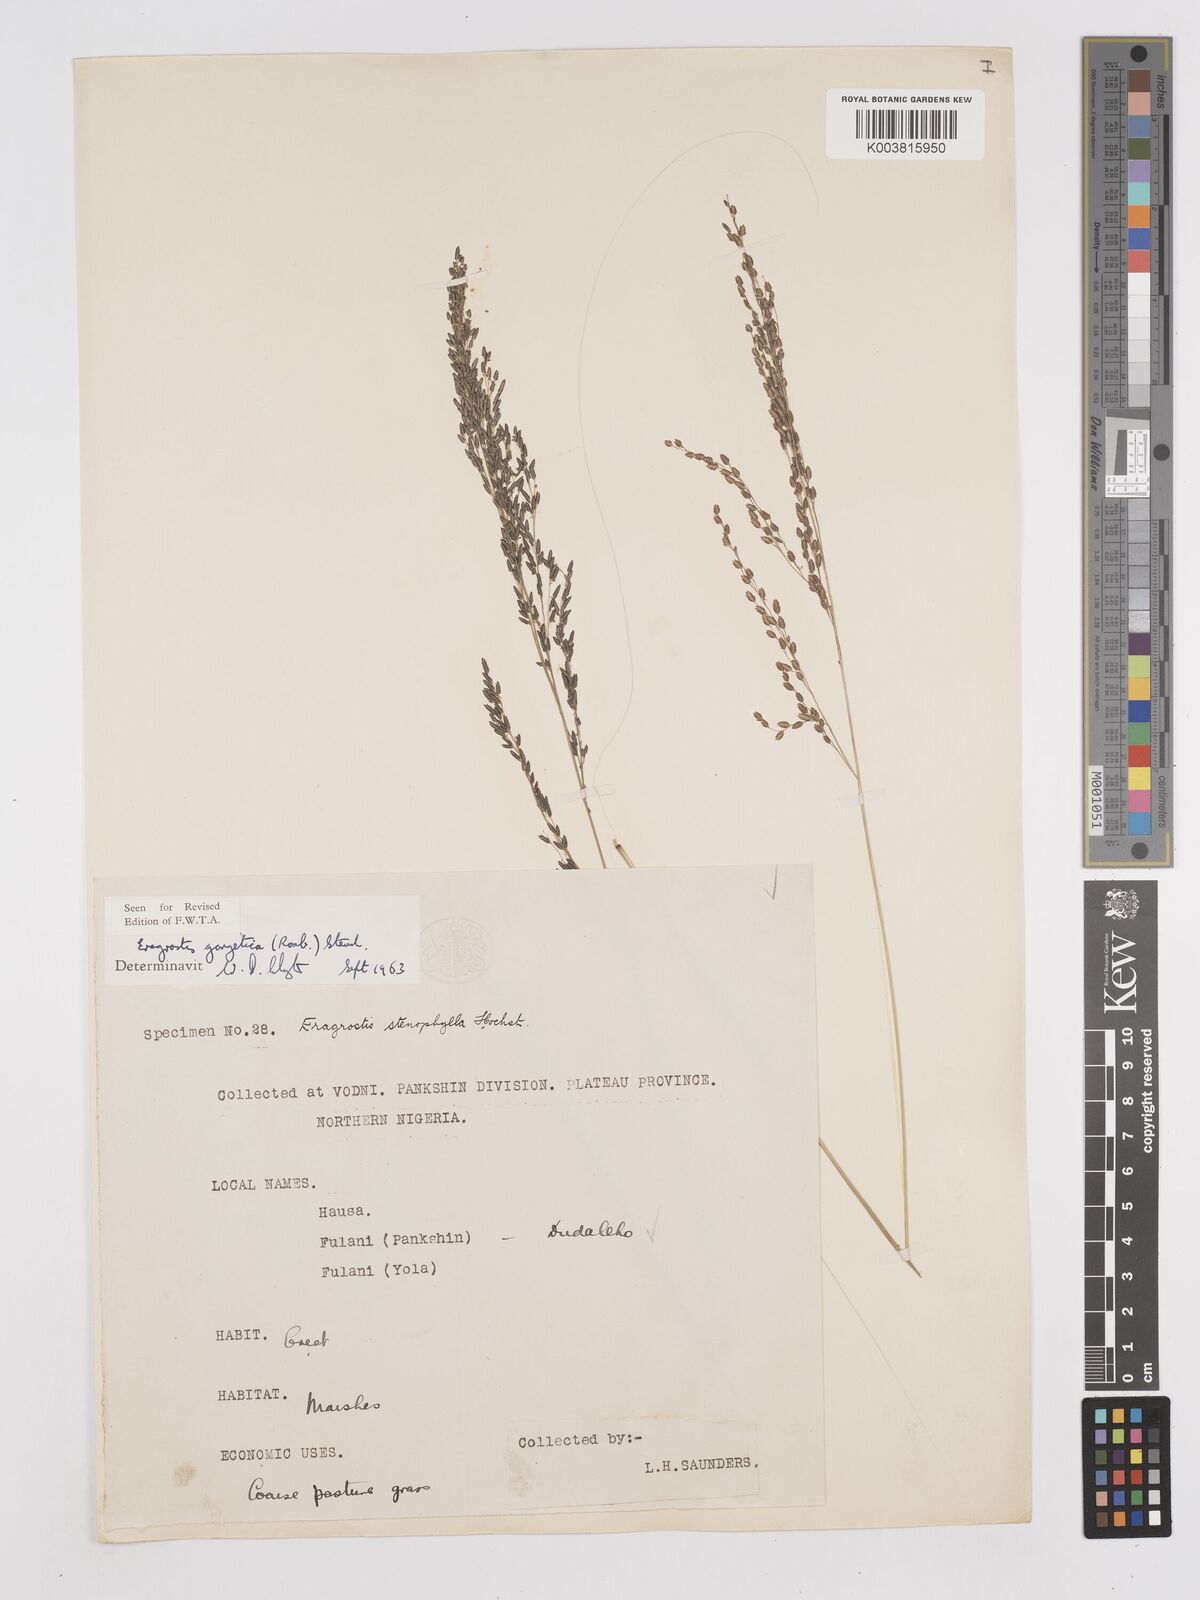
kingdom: Plantae
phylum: Tracheophyta
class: Liliopsida
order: Poales
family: Poaceae
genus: Eragrostis
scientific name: Eragrostis gangetica
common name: Slimflower lovegrass
